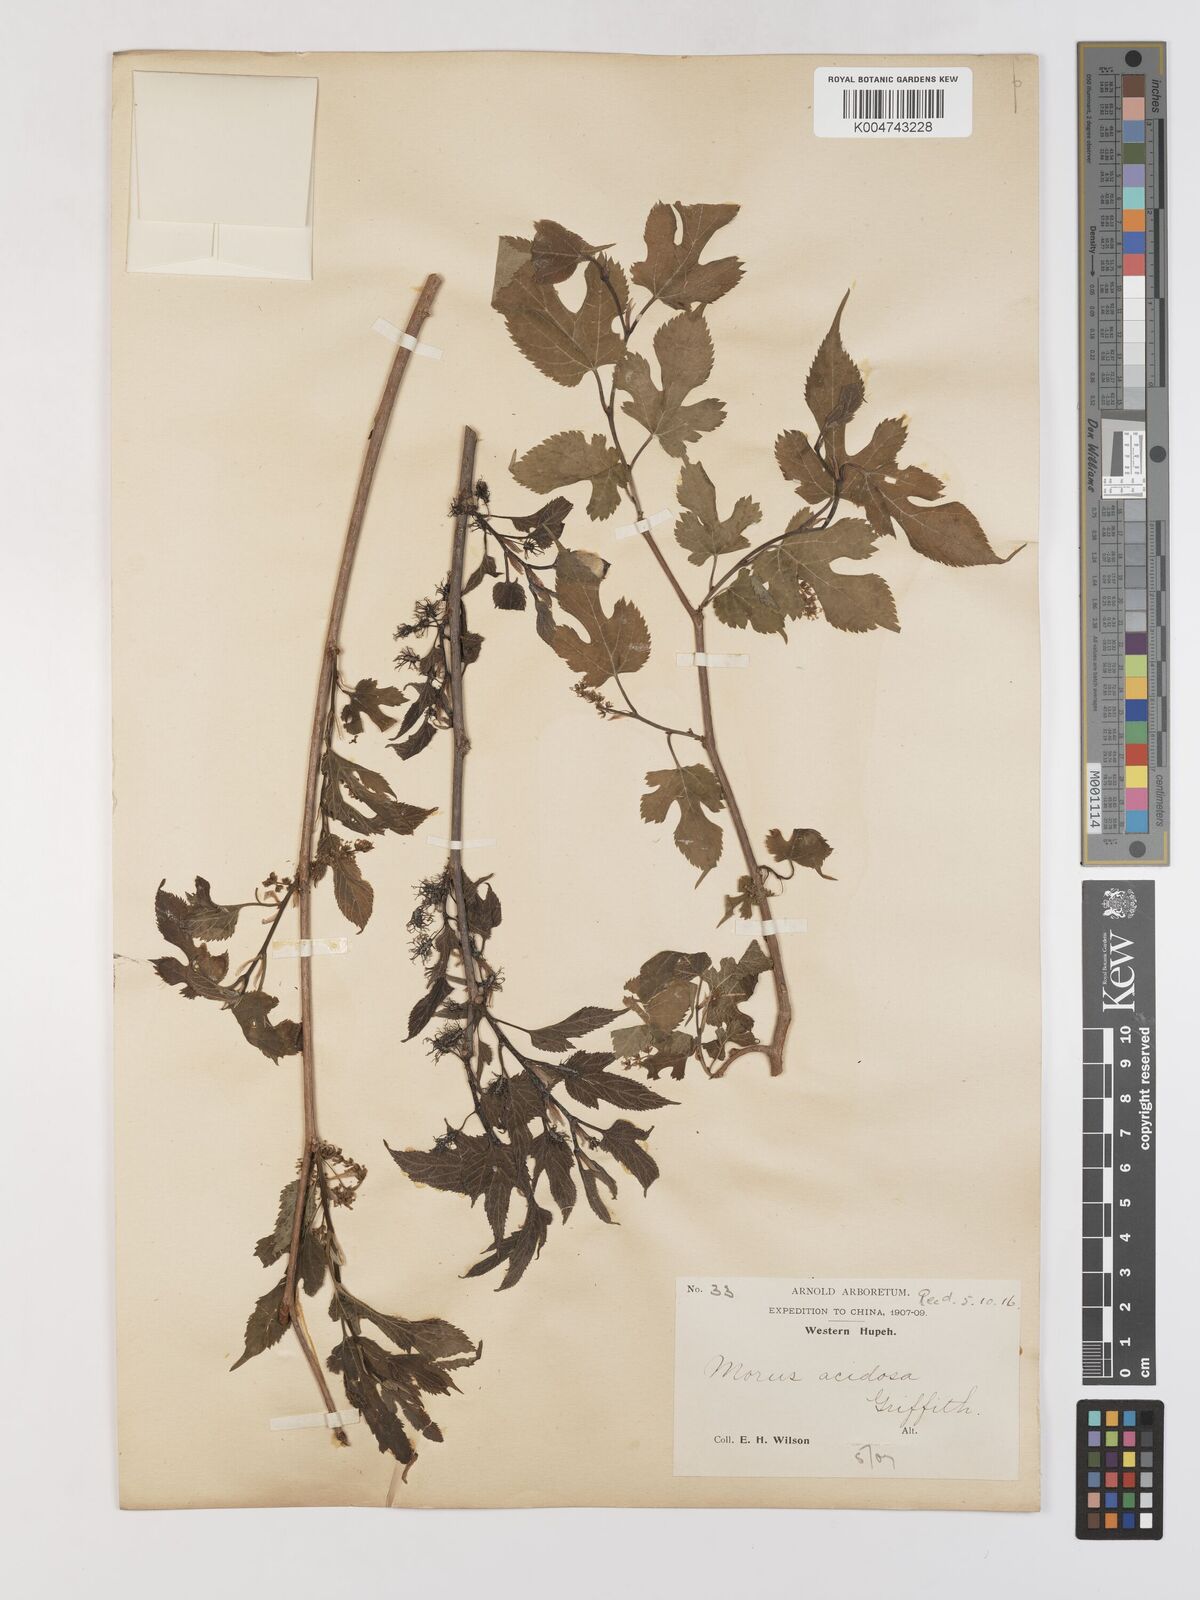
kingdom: Plantae
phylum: Tracheophyta
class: Magnoliopsida
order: Rosales
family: Moraceae
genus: Morus
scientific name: Morus indica
